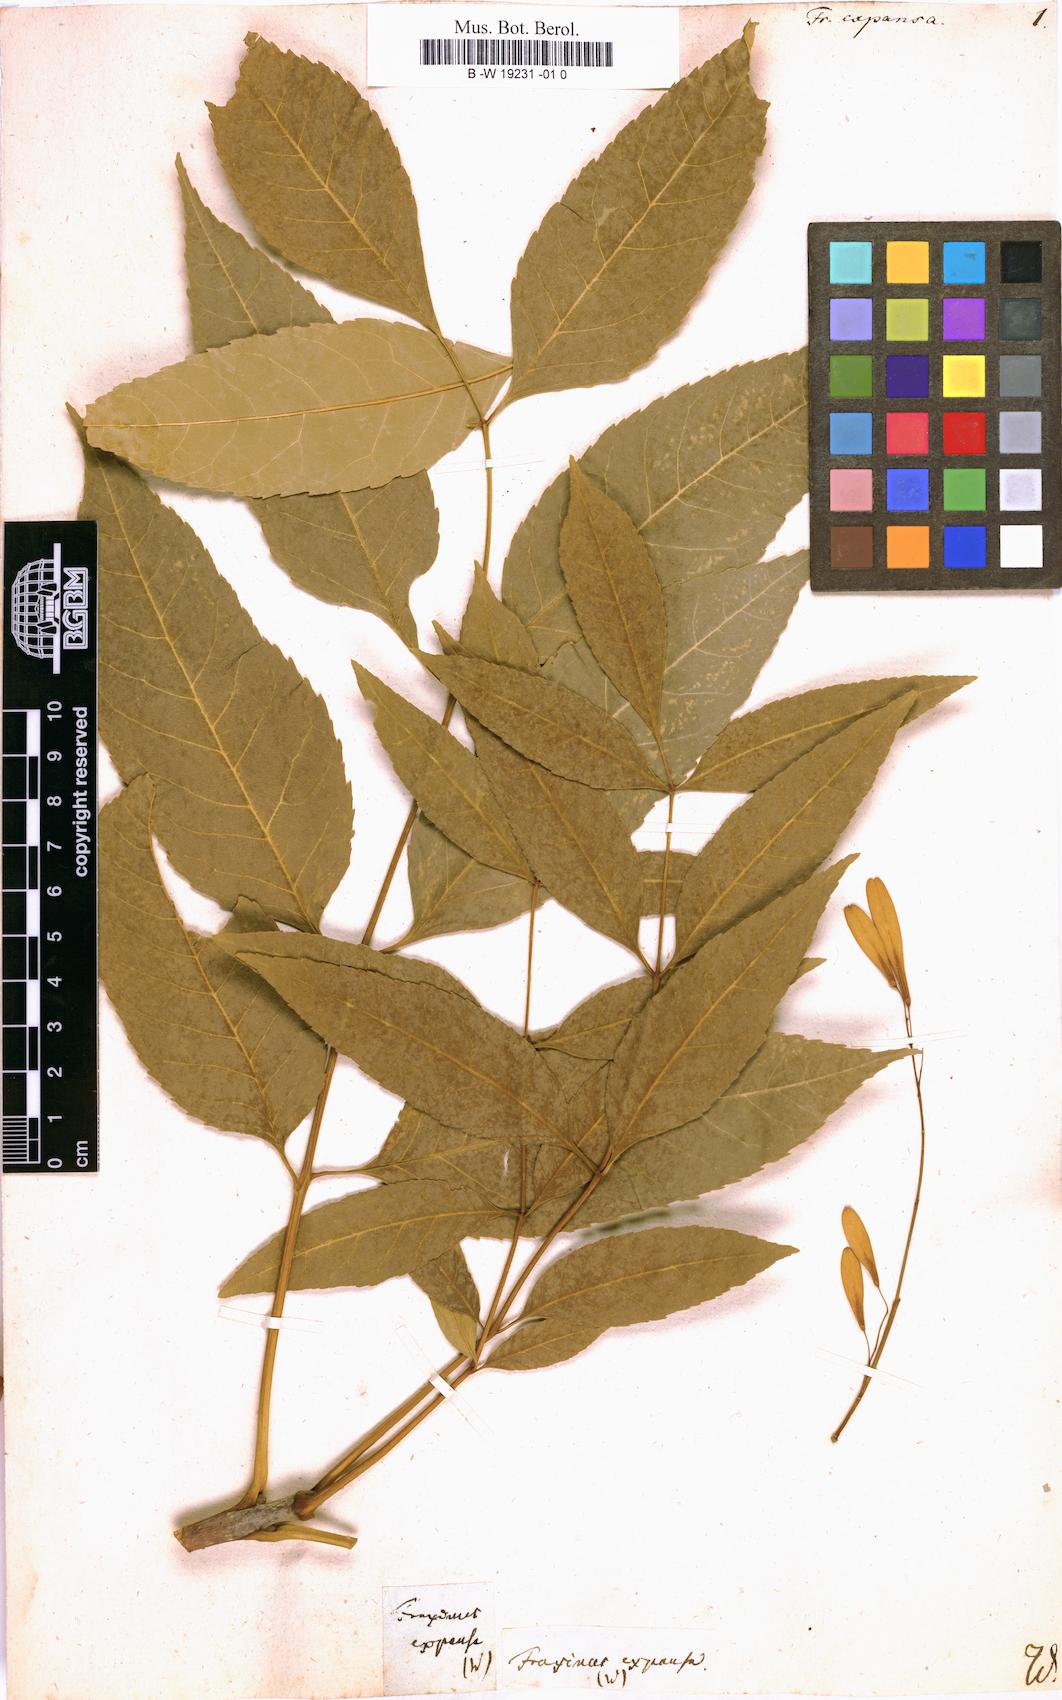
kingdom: Plantae
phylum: Tracheophyta
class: Magnoliopsida
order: Lamiales
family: Oleaceae
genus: Fraxinus
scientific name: Fraxinus pennsylvanica
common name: Green ash
